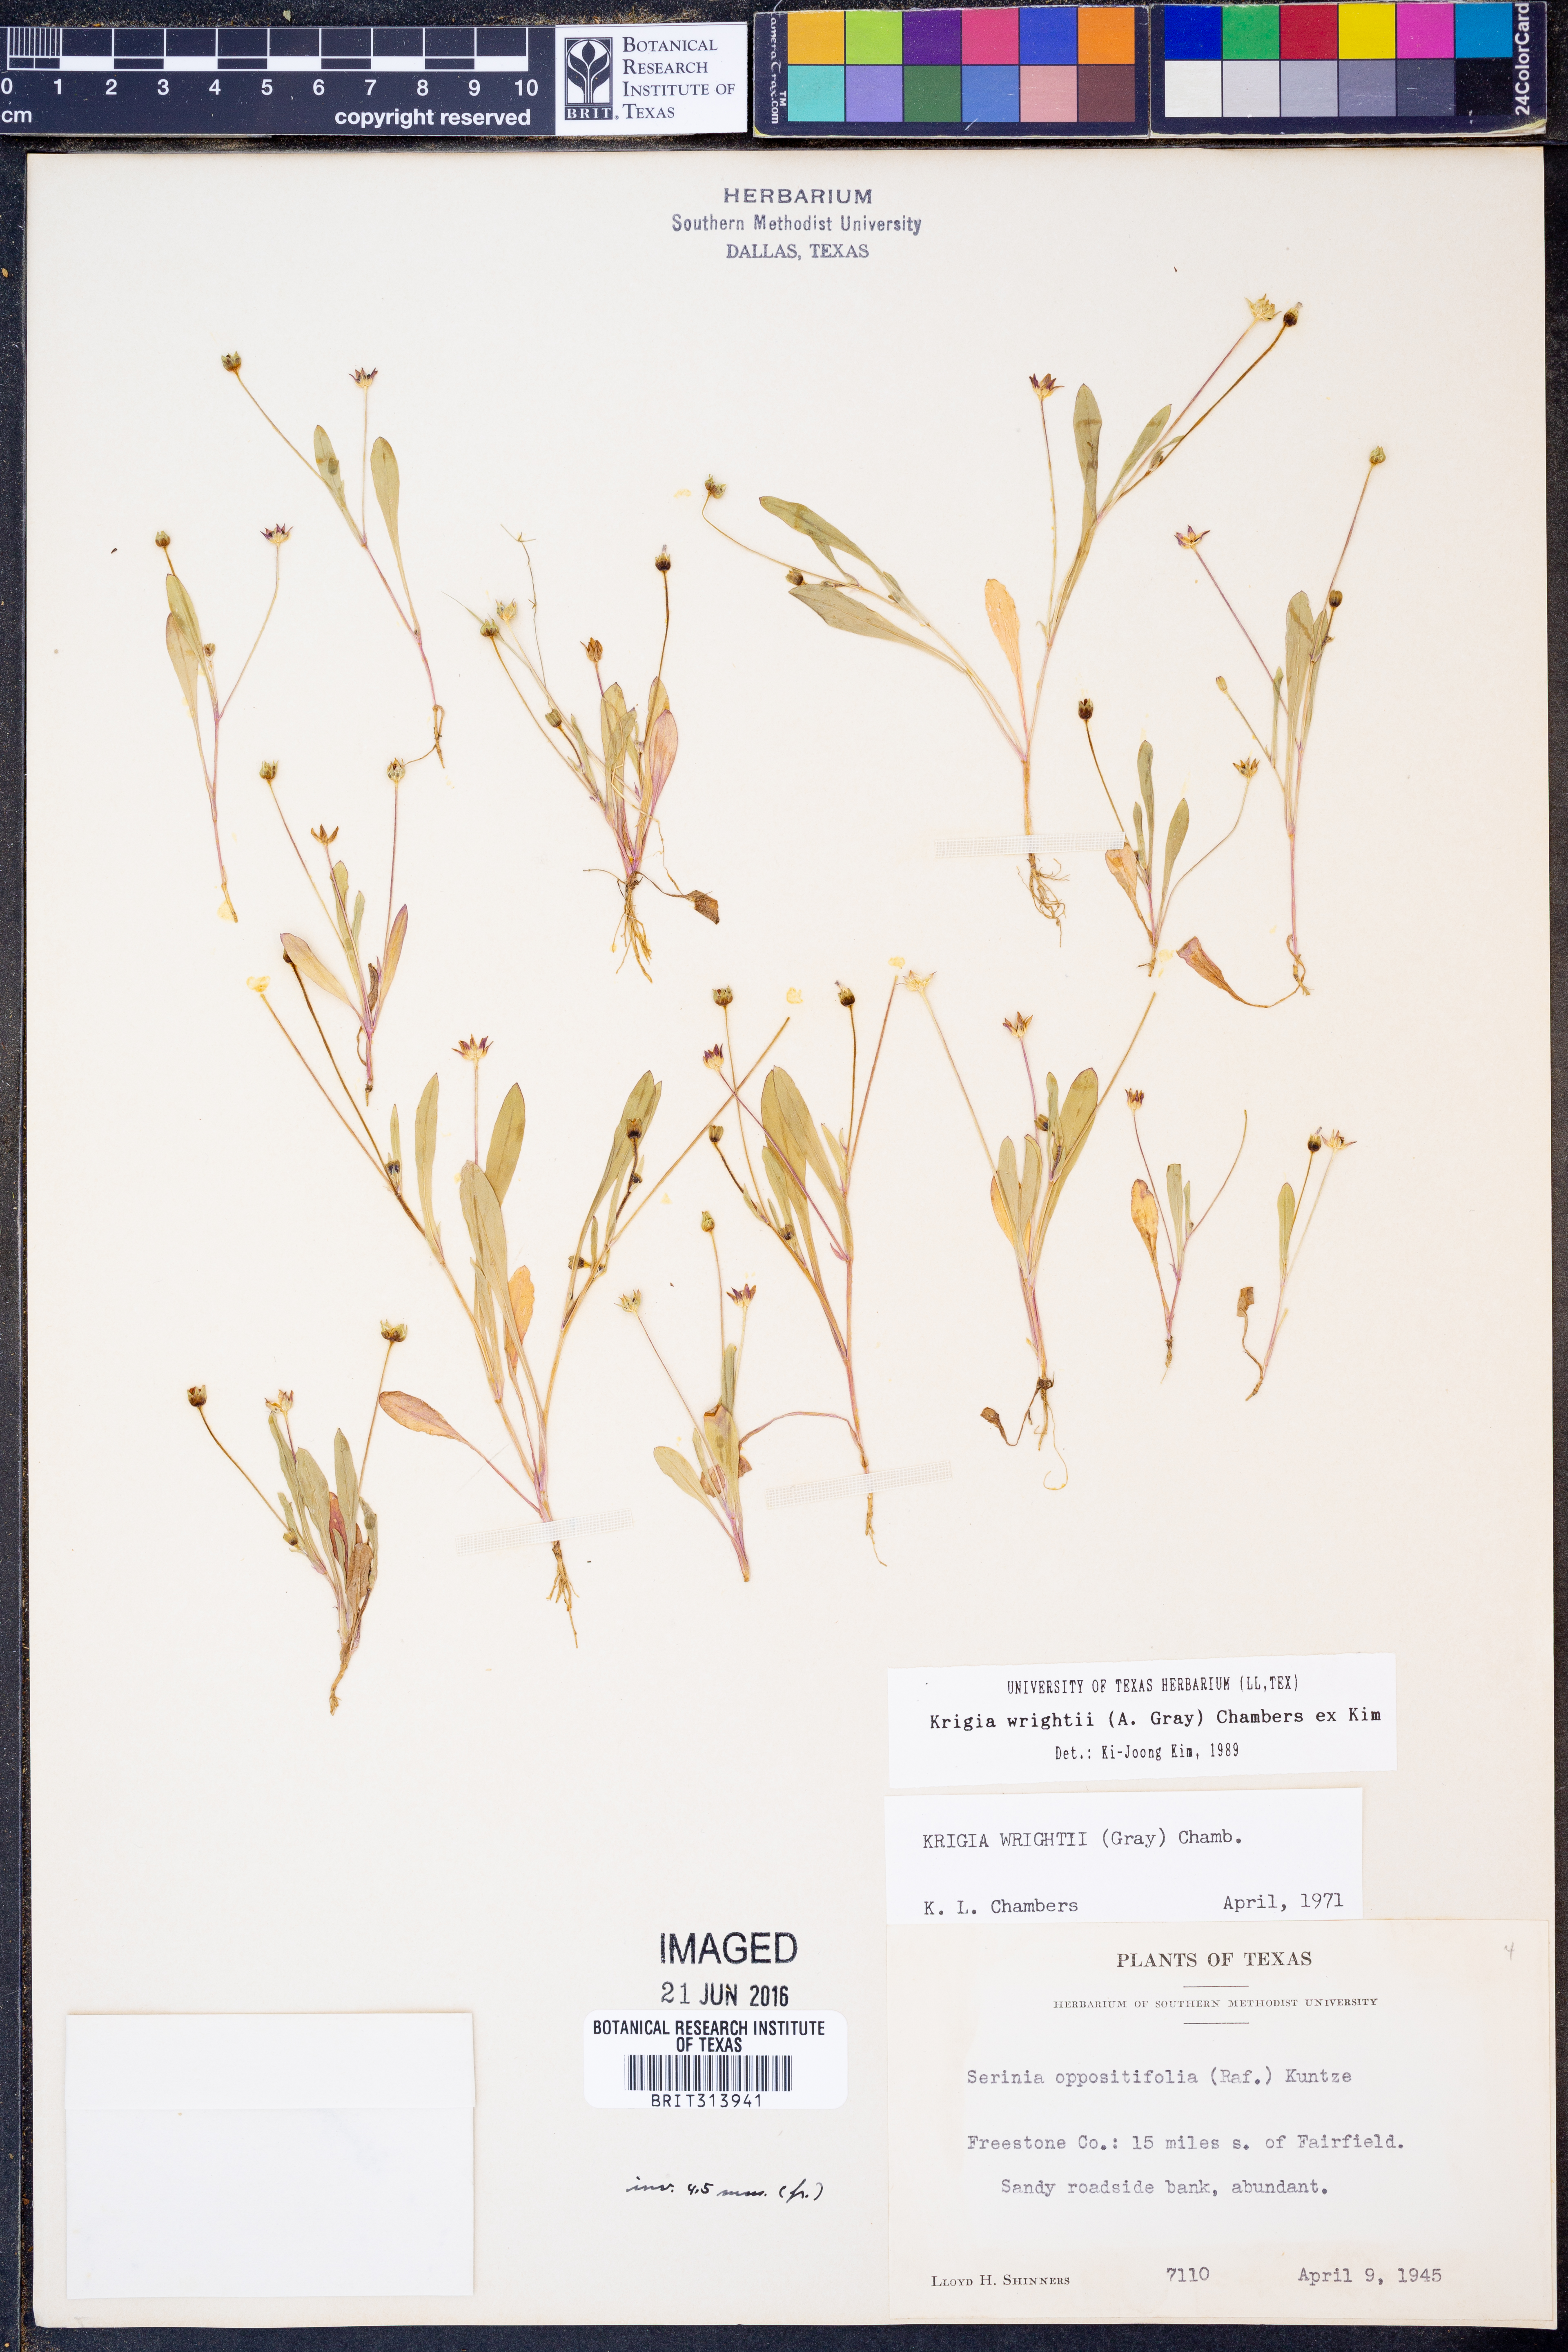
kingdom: Plantae
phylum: Tracheophyta
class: Magnoliopsida
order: Asterales
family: Asteraceae
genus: Krigia
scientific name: Krigia wrightii
